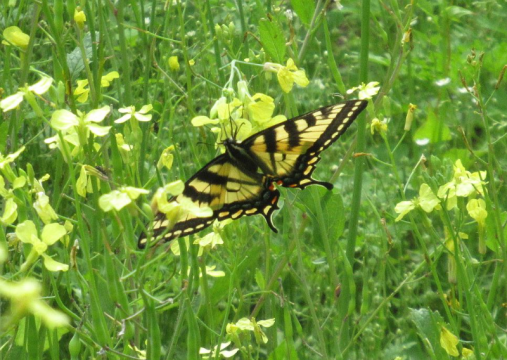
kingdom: Animalia
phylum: Arthropoda
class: Insecta
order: Lepidoptera
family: Papilionidae
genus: Pterourus
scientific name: Pterourus canadensis
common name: Canadian Tiger Swallowtail
